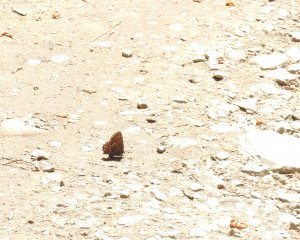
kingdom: Animalia
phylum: Arthropoda
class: Insecta
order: Lepidoptera
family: Lycaenidae
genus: Incisalia
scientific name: Incisalia niphon
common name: Eastern Pine Elfin
